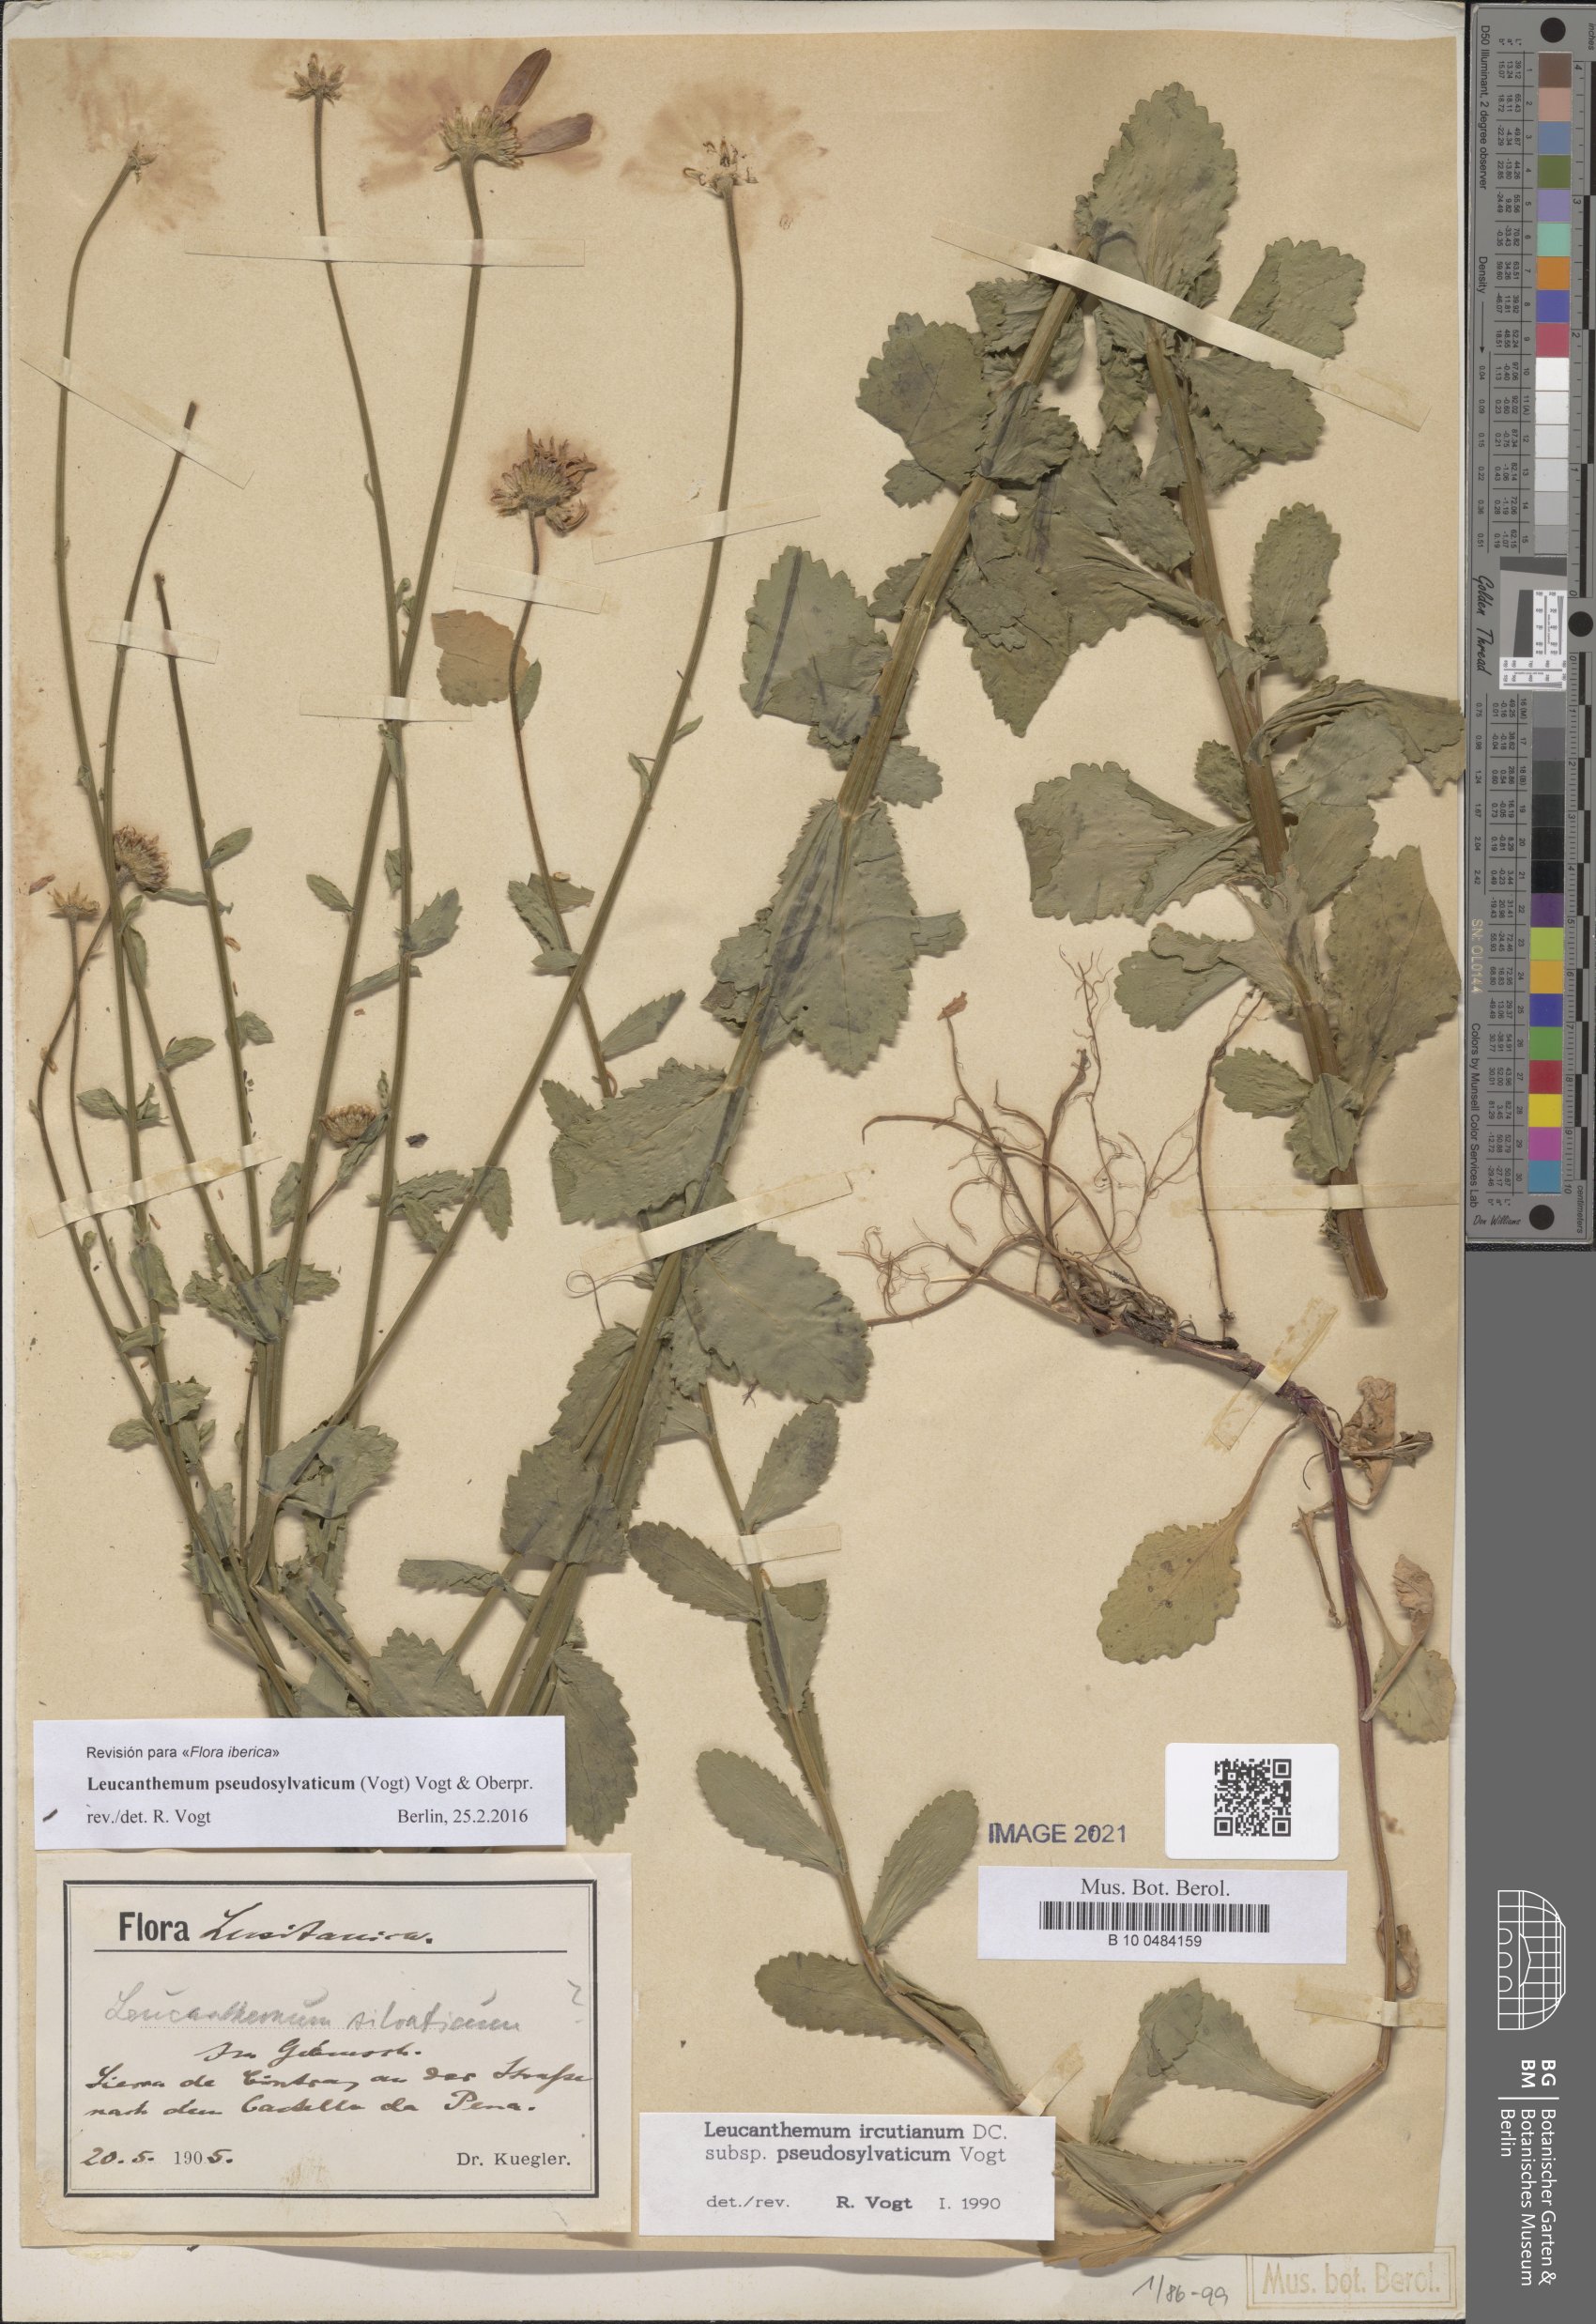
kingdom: Plantae
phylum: Tracheophyta
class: Magnoliopsida
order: Asterales
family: Asteraceae
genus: Leucanthemum
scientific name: Leucanthemum pseudosylvaticum
